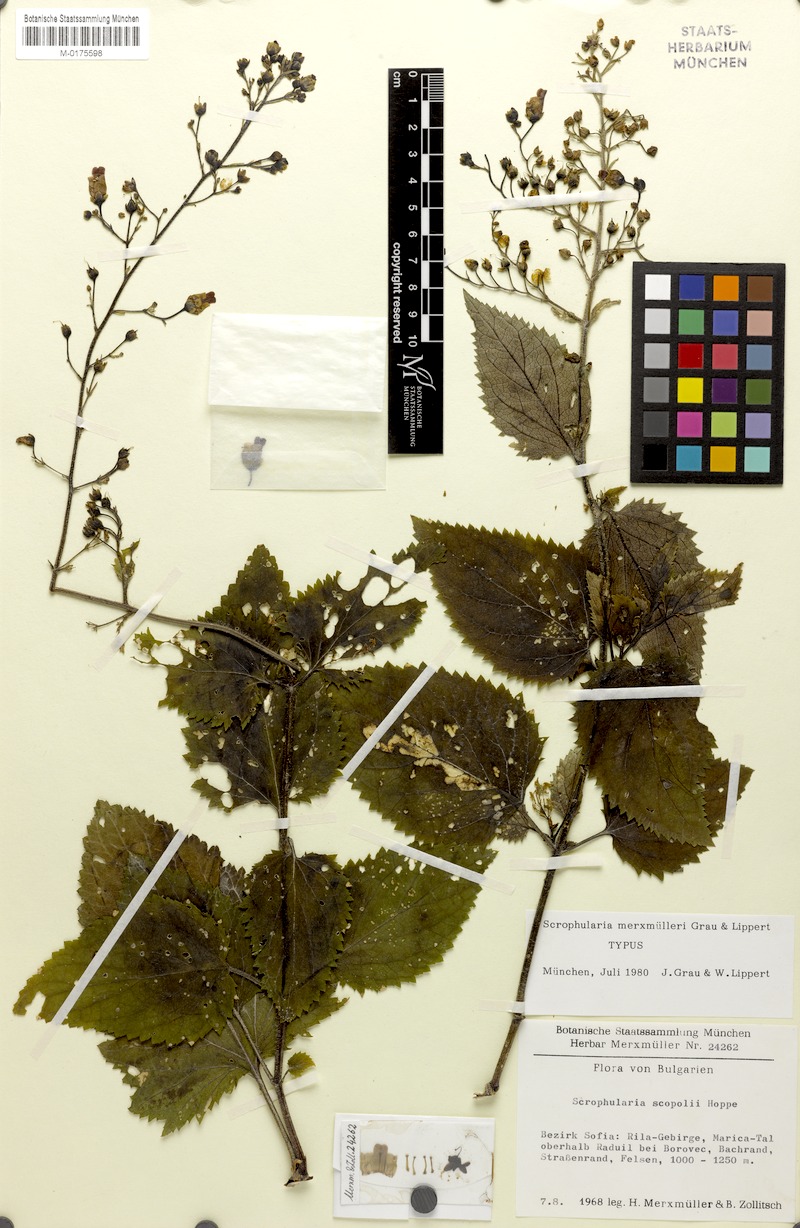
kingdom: Plantae
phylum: Tracheophyta
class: Magnoliopsida
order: Lamiales
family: Scrophulariaceae
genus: Scrophularia
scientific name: Scrophularia scopolii
